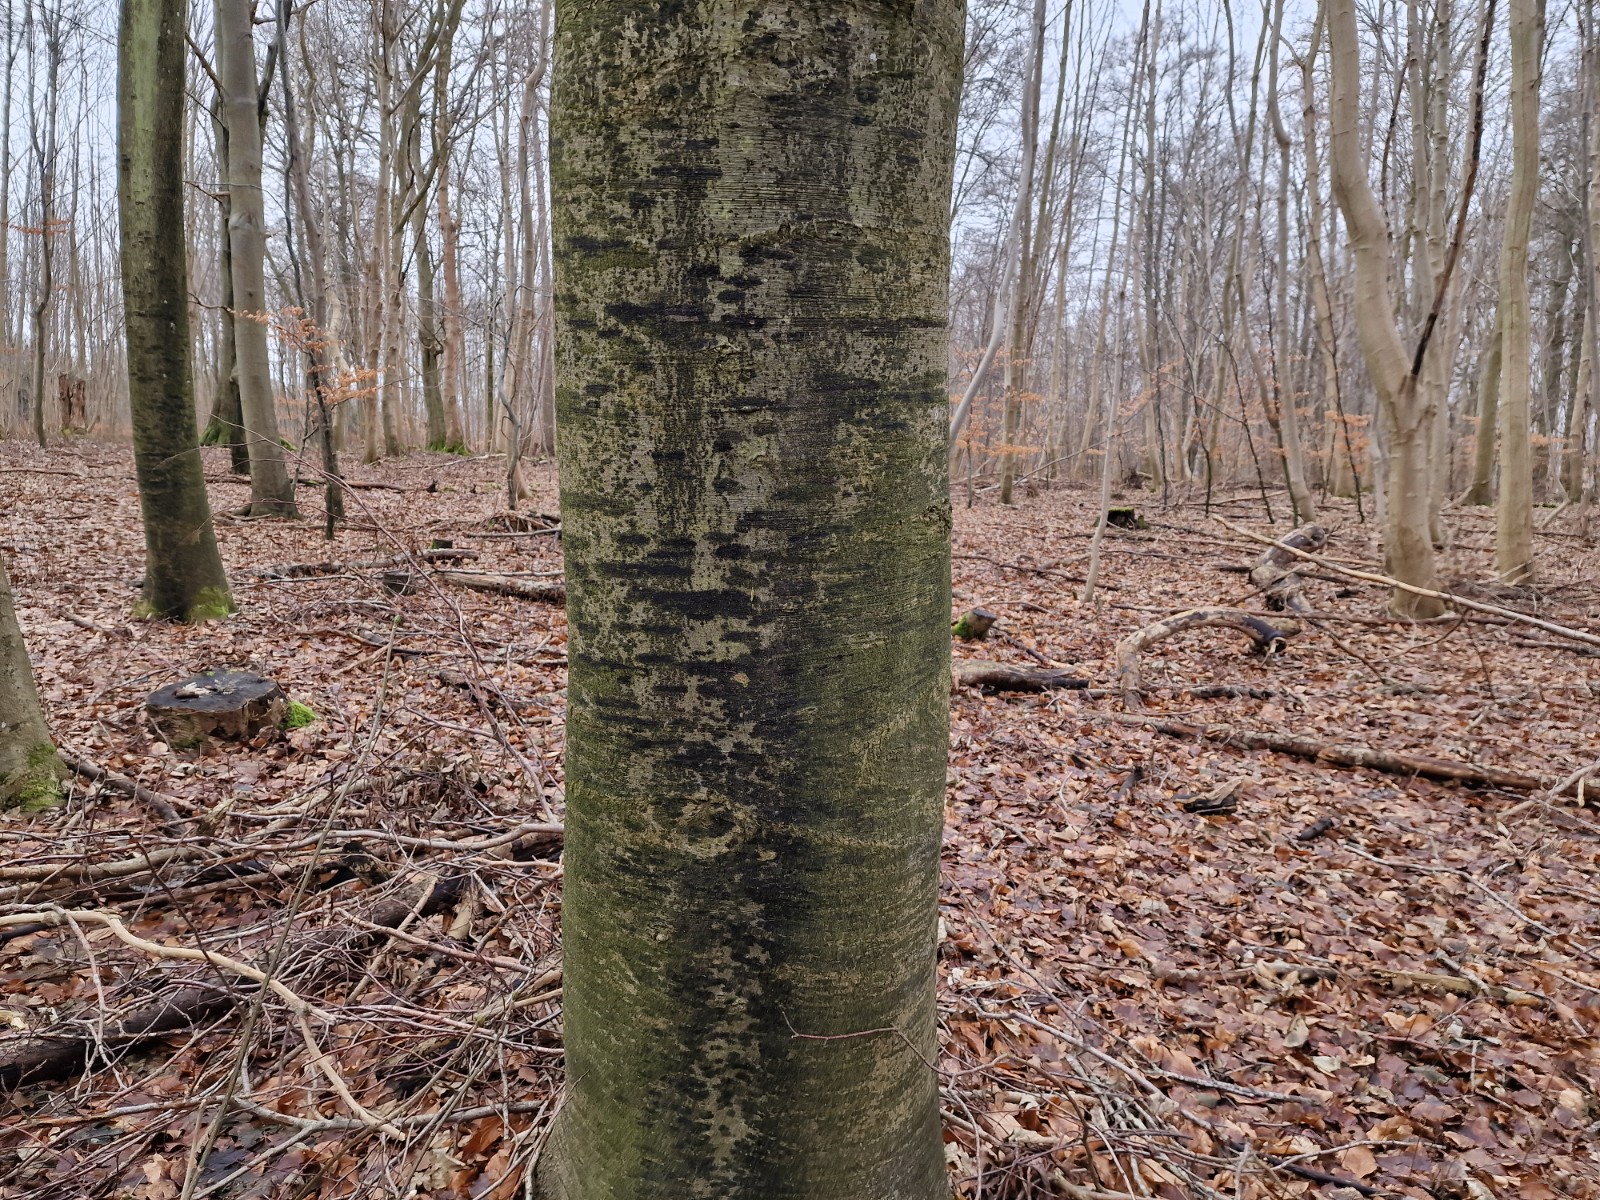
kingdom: Fungi
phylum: Ascomycota
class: Leotiomycetes
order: Rhytismatales
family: Ascodichaenaceae
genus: Ascodichaena
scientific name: Ascodichaena rugosa
